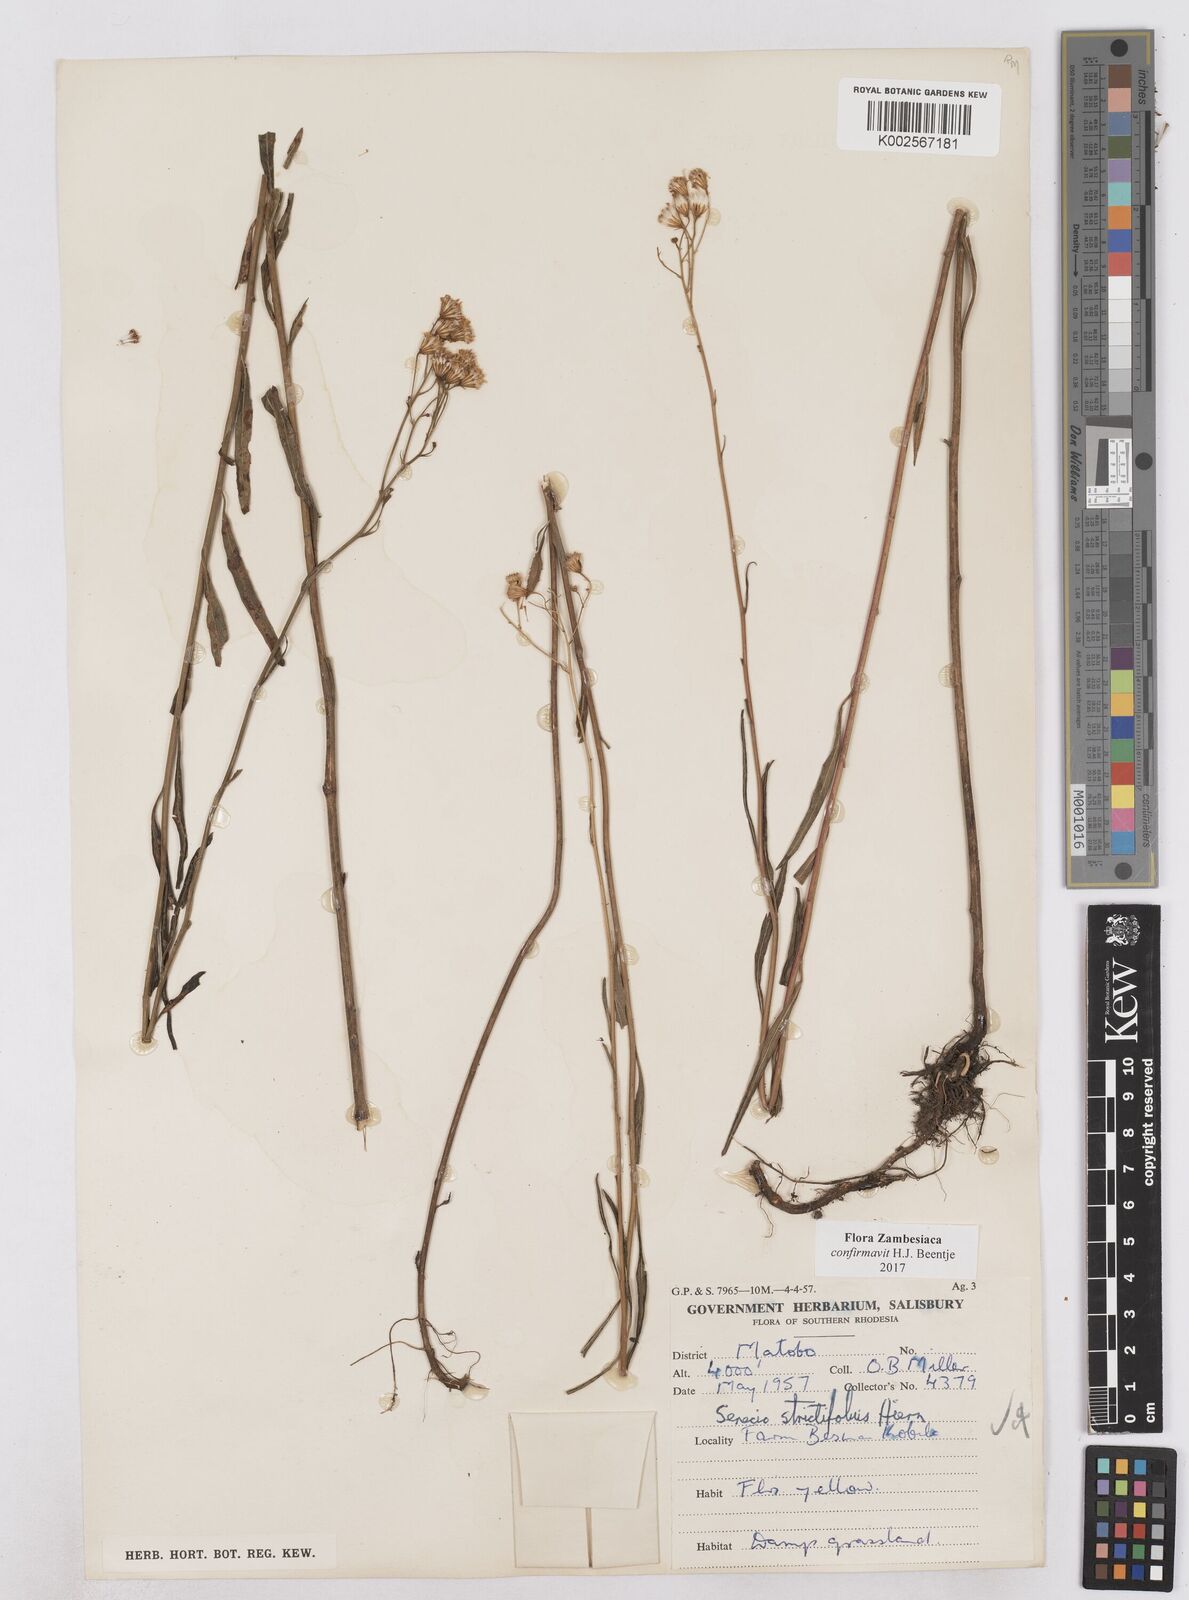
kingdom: Plantae
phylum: Tracheophyta
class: Magnoliopsida
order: Asterales
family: Asteraceae
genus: Senecio
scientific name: Senecio strictifolius
